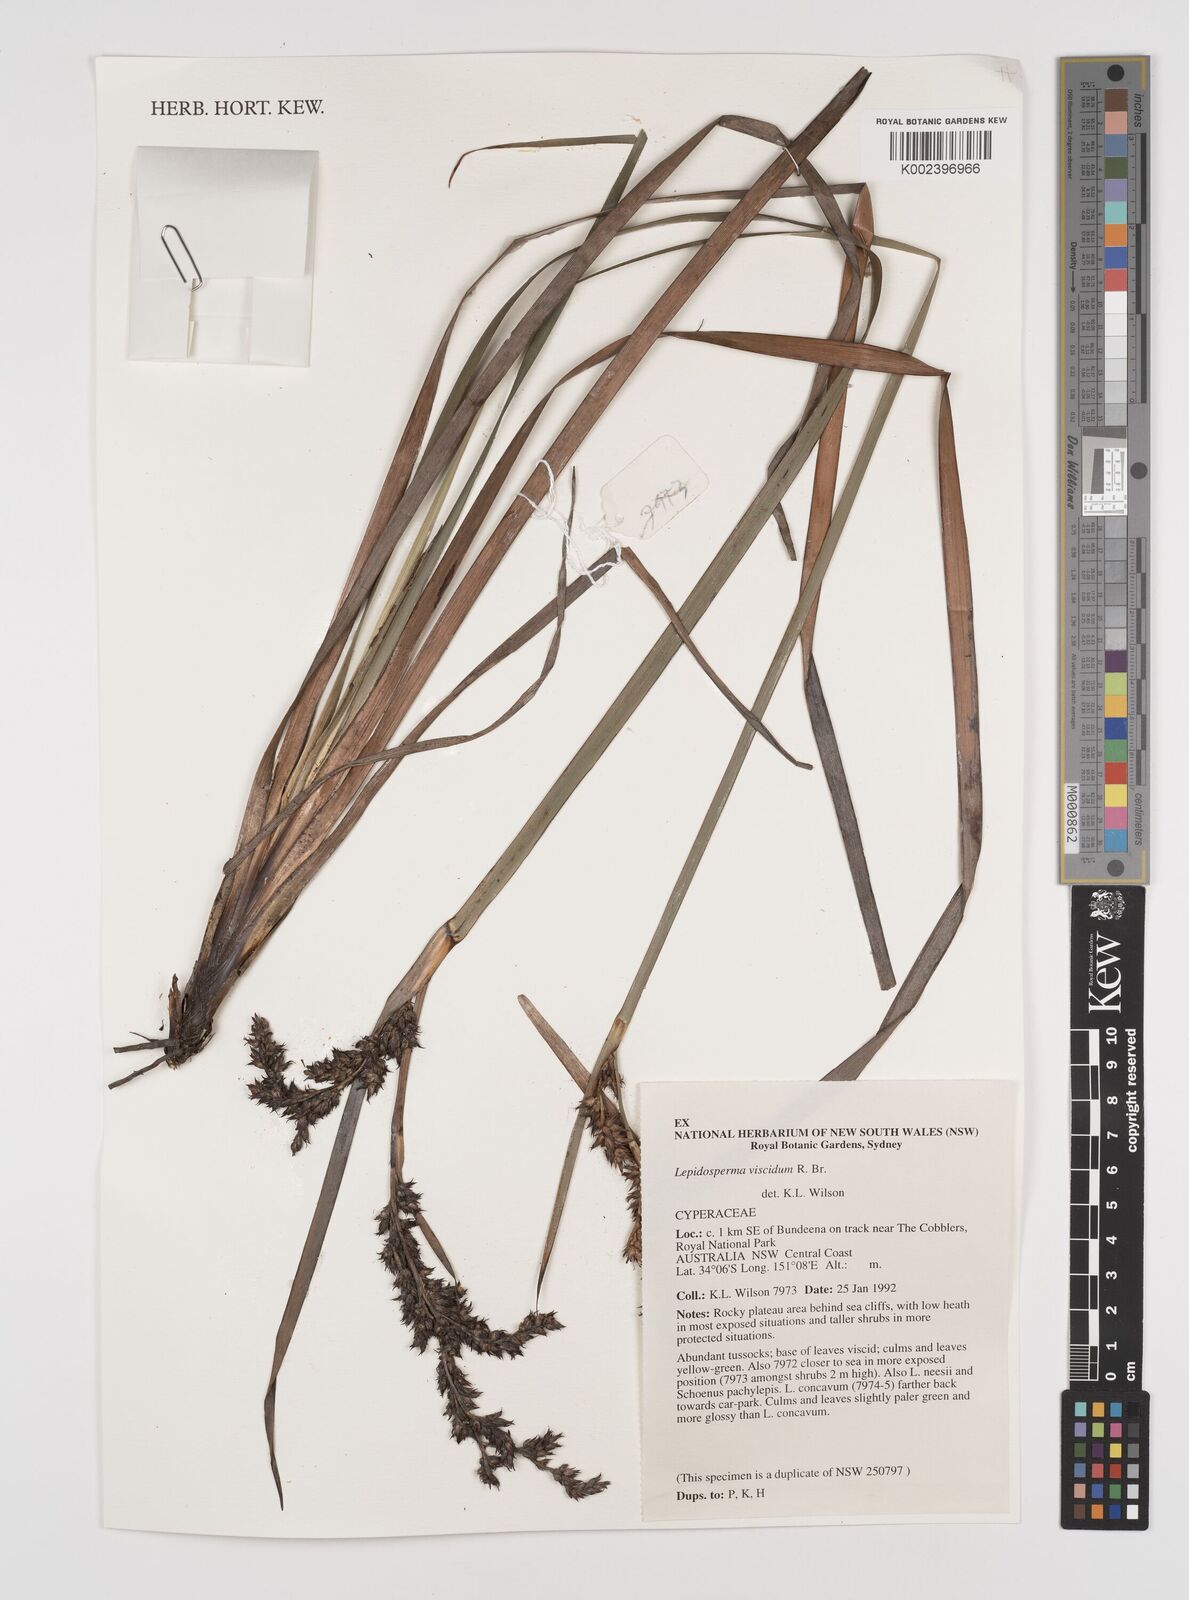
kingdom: Plantae
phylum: Tracheophyta
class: Liliopsida
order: Poales
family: Cyperaceae
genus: Lepidosperma
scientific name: Lepidosperma viscidum
